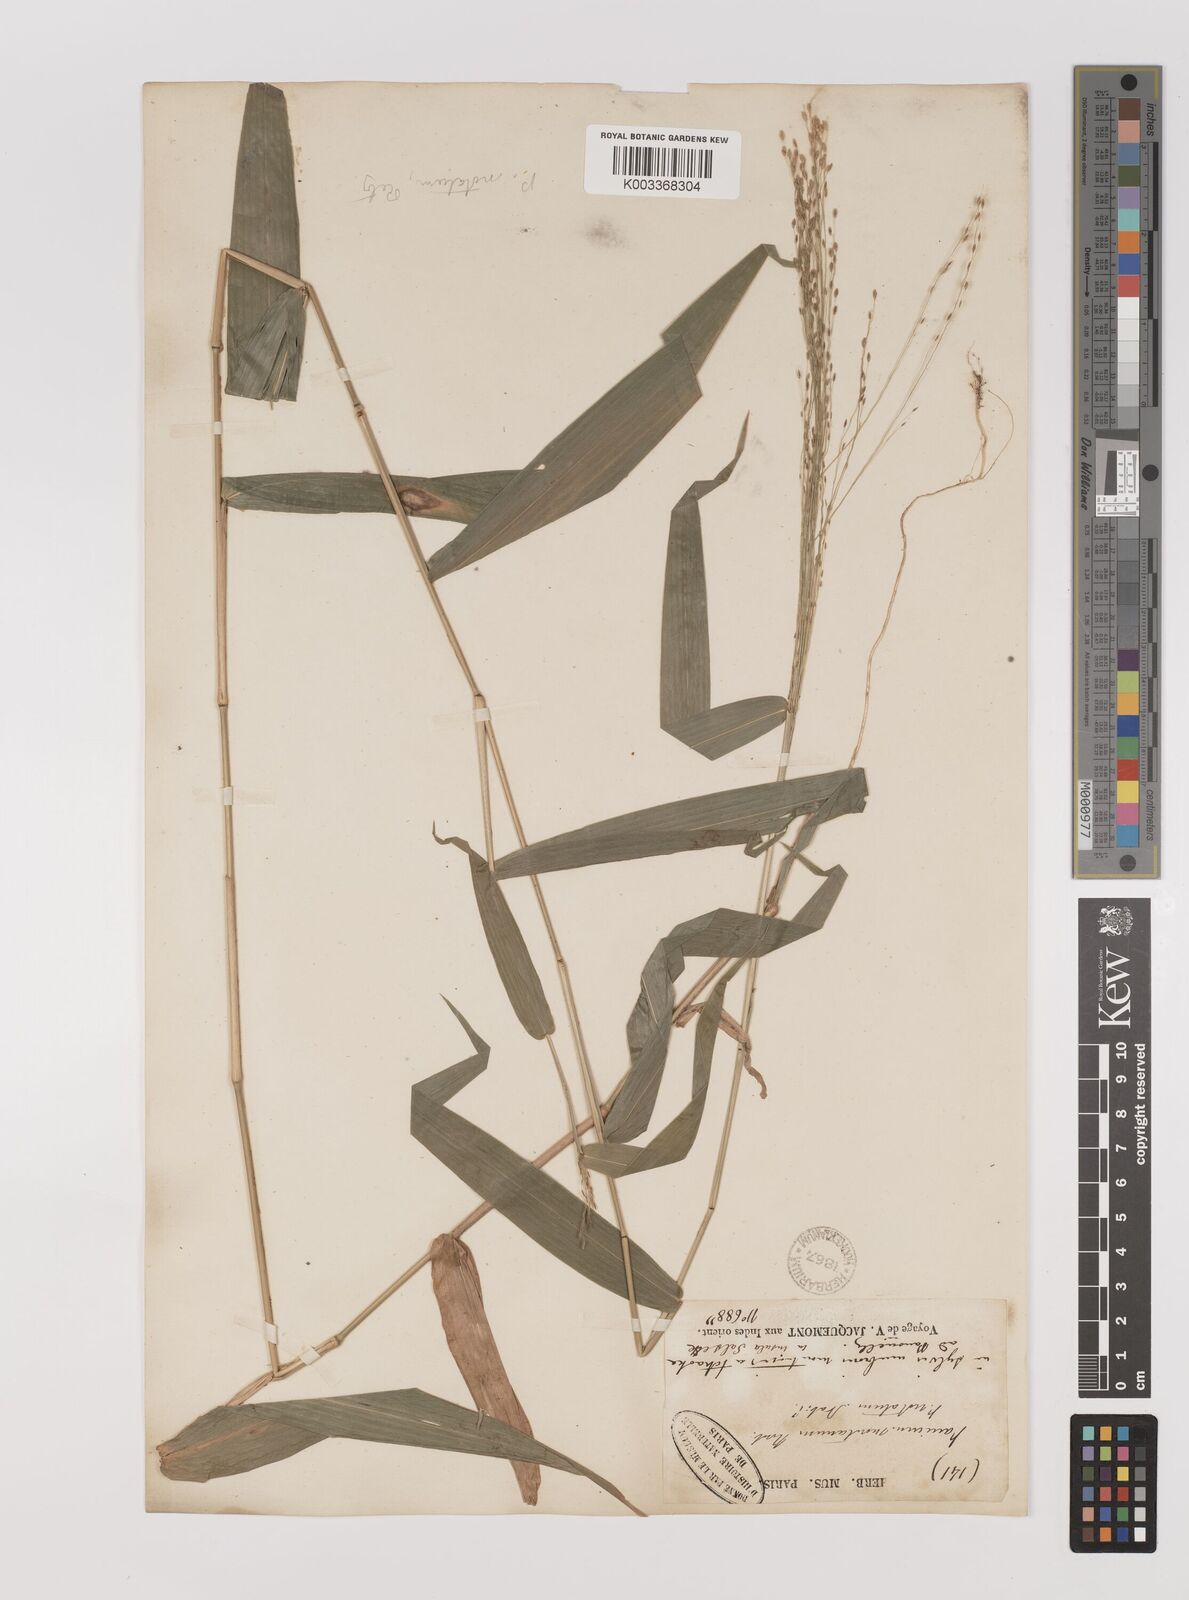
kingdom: Plantae
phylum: Tracheophyta
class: Liliopsida
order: Poales
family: Poaceae
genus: Panicum
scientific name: Panicum notatum
